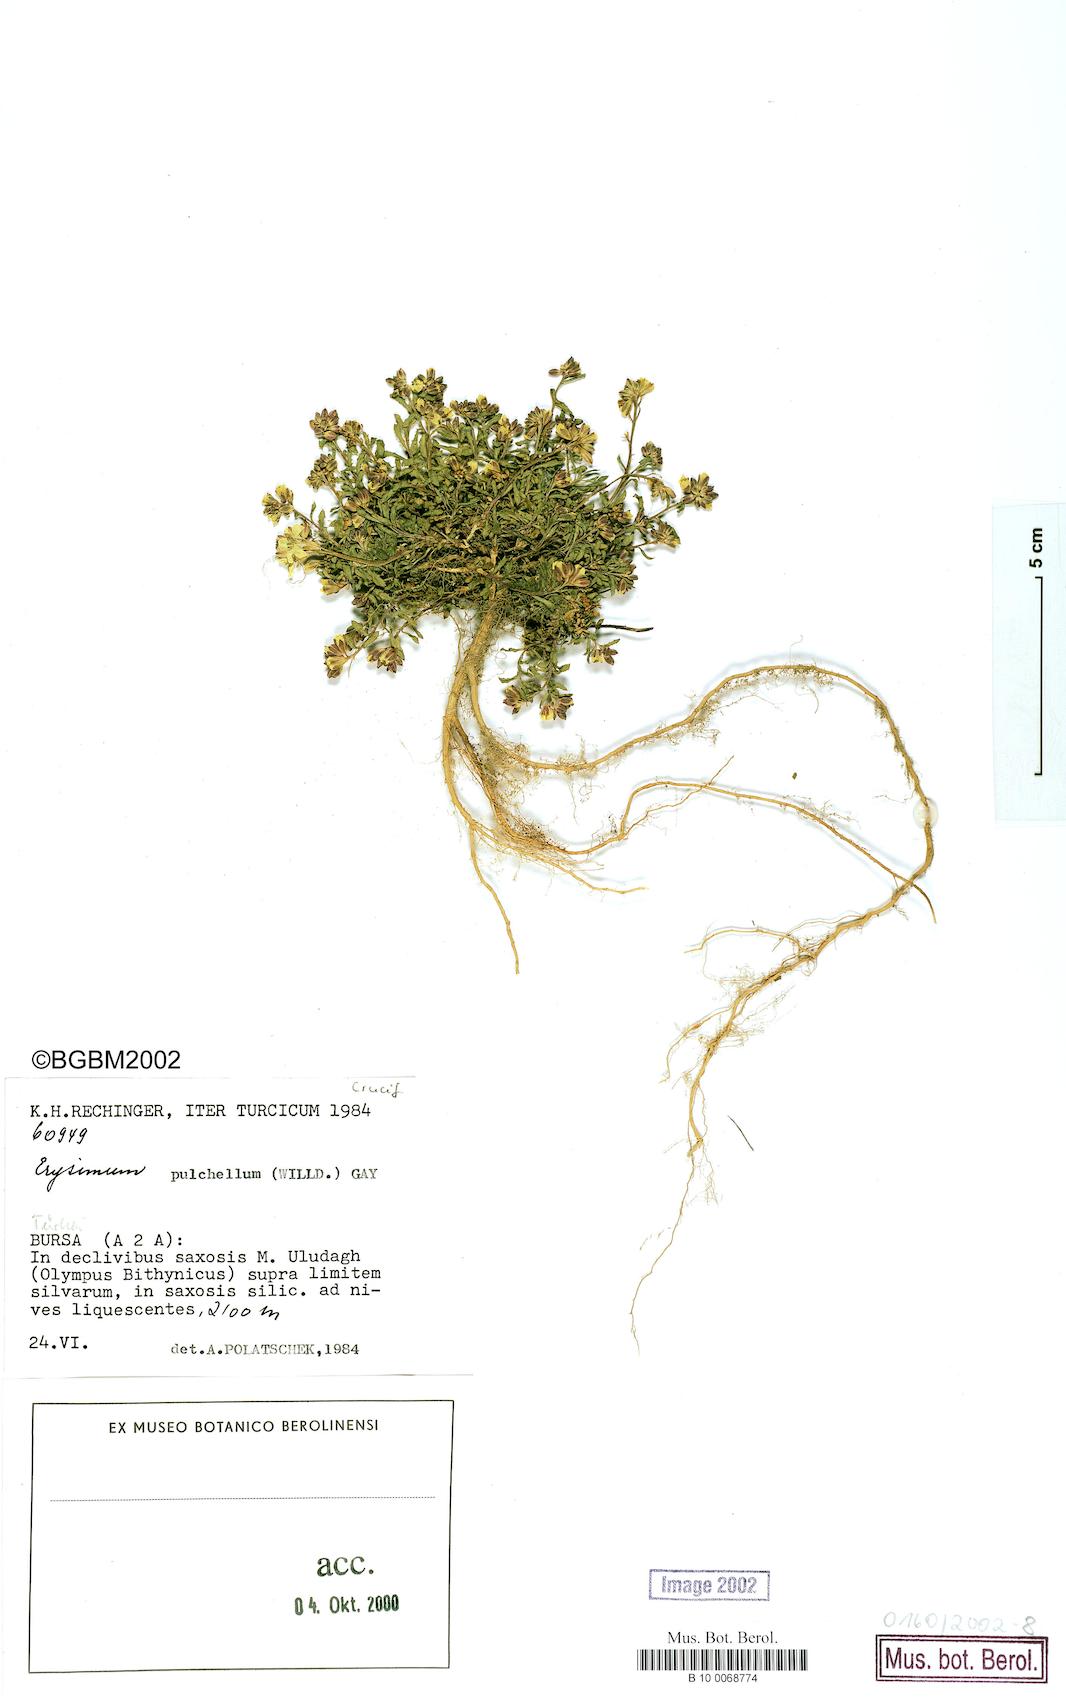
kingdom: Plantae
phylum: Tracheophyta
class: Magnoliopsida
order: Brassicales
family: Brassicaceae
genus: Erysimum
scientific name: Erysimum pulchellum
